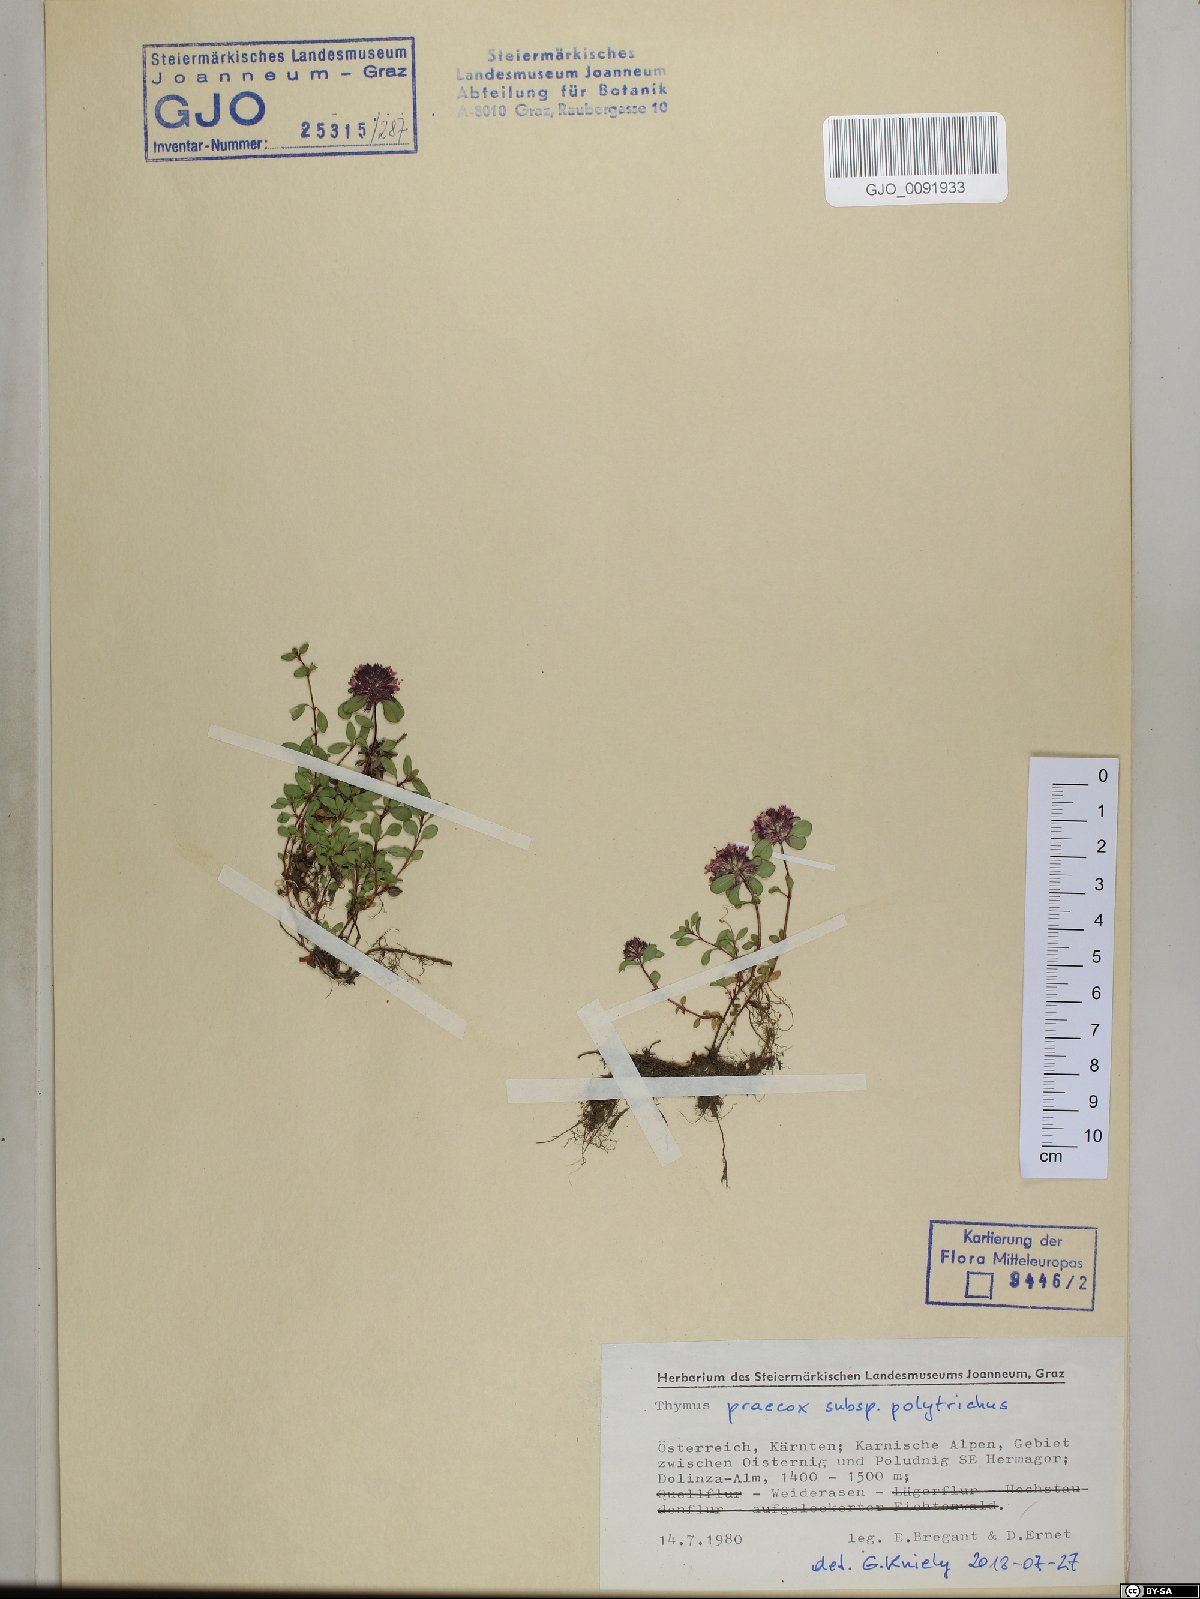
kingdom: Plantae
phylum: Tracheophyta
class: Magnoliopsida
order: Lamiales
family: Lamiaceae
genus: Thymus
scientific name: Thymus praecox
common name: Wild thyme
